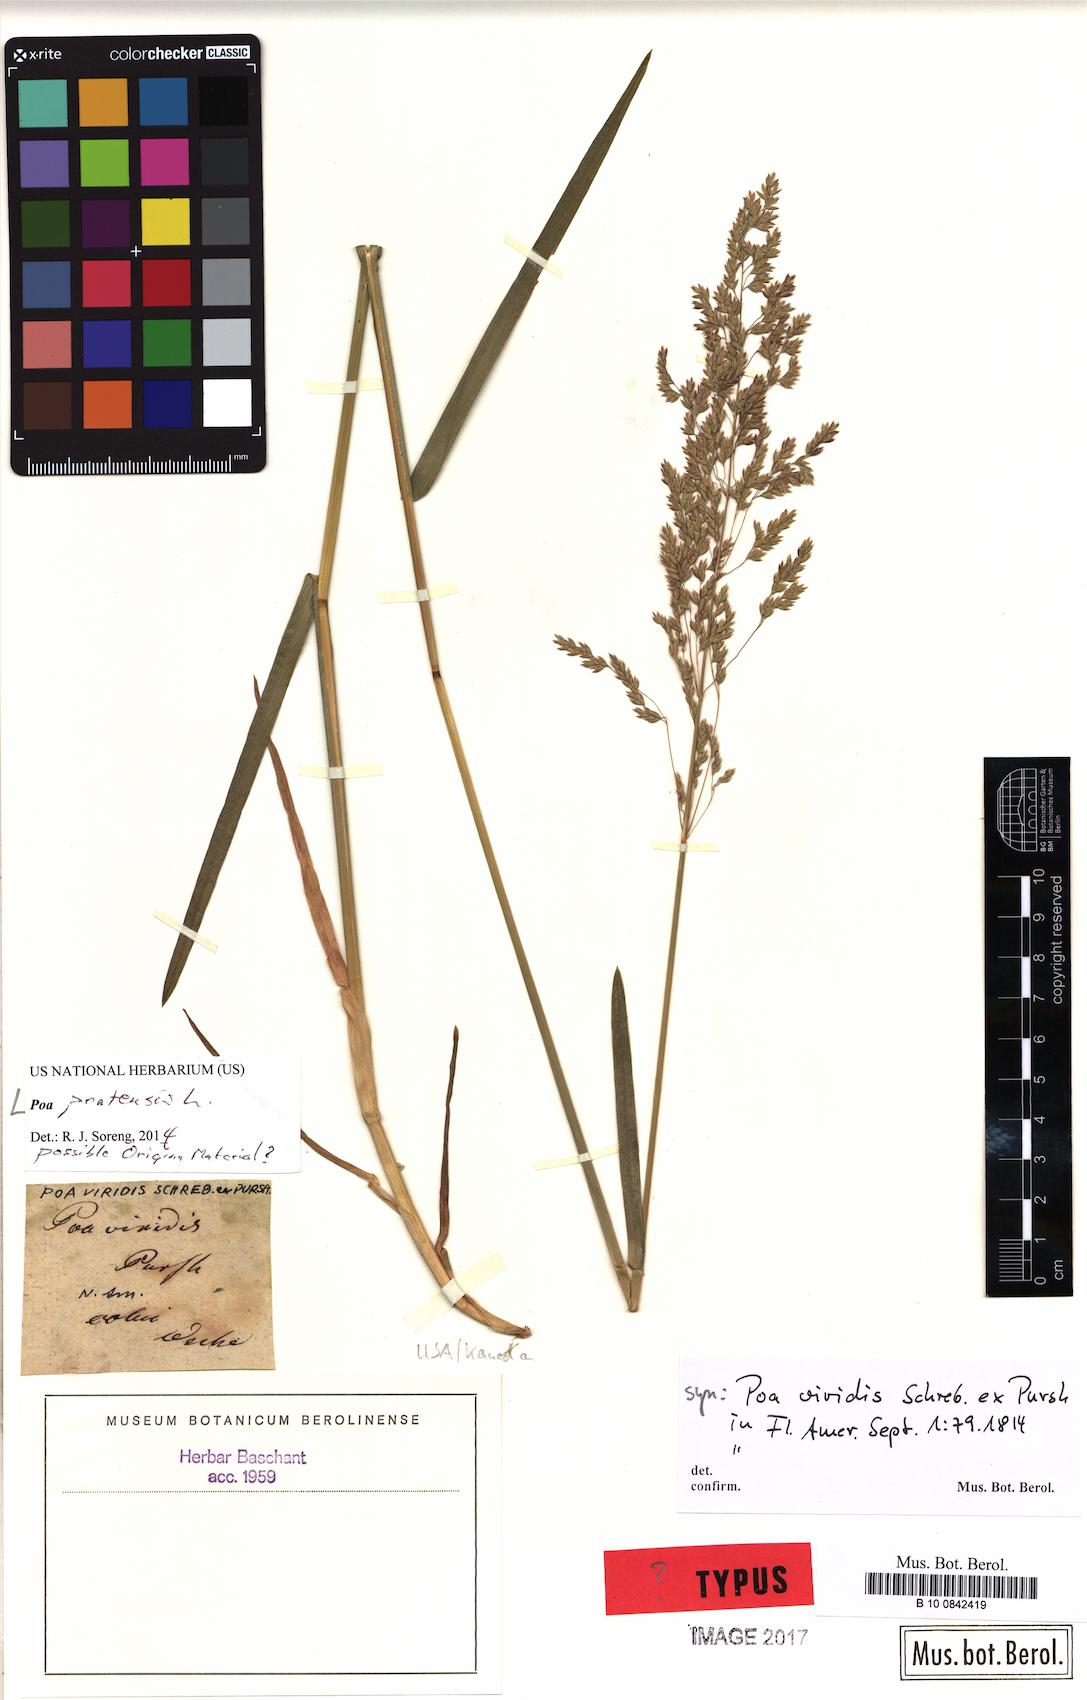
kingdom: Plantae
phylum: Tracheophyta
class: Liliopsida
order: Poales
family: Poaceae
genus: Poa
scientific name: Poa pratensis
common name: Kentucky bluegrass
